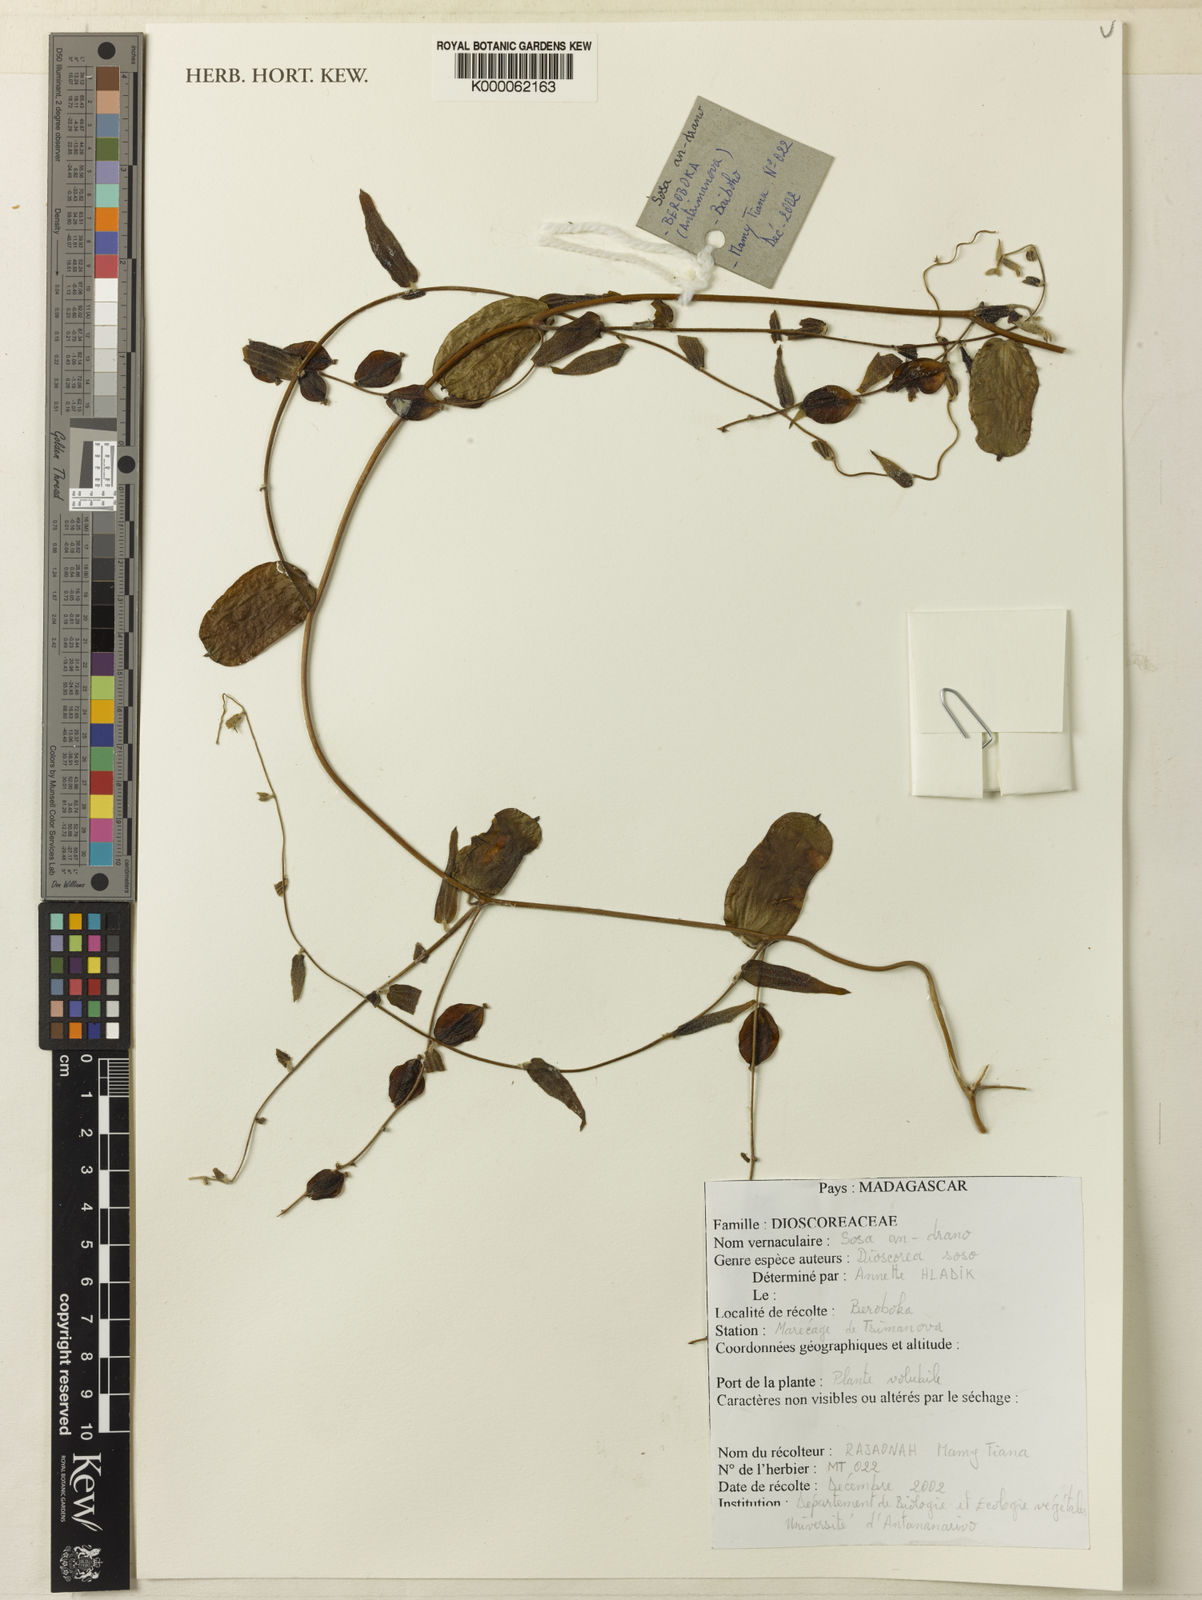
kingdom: Plantae
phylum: Tracheophyta
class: Liliopsida
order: Dioscoreales
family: Dioscoreaceae
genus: Dioscorea
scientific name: Dioscorea soso
